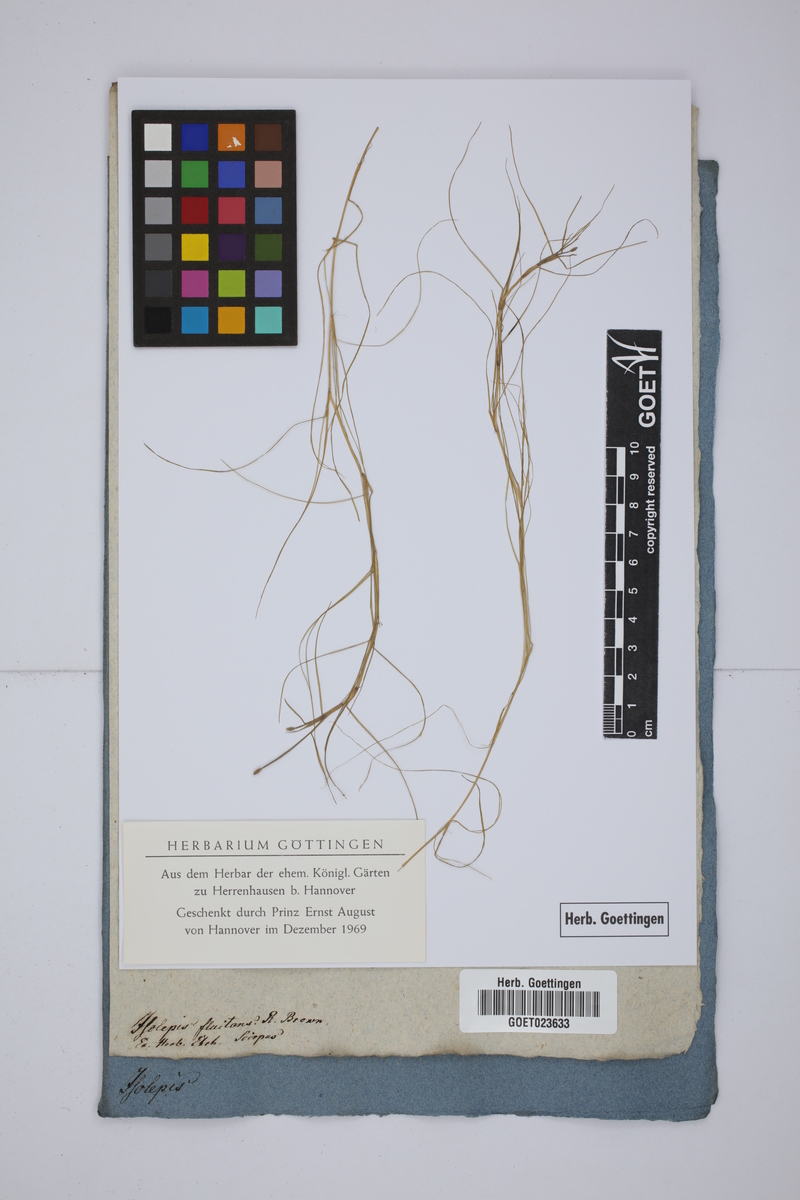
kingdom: Plantae
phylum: Tracheophyta
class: Liliopsida
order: Poales
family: Cyperaceae
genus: Isolepis
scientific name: Isolepis fluitans
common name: Floating club-rush
